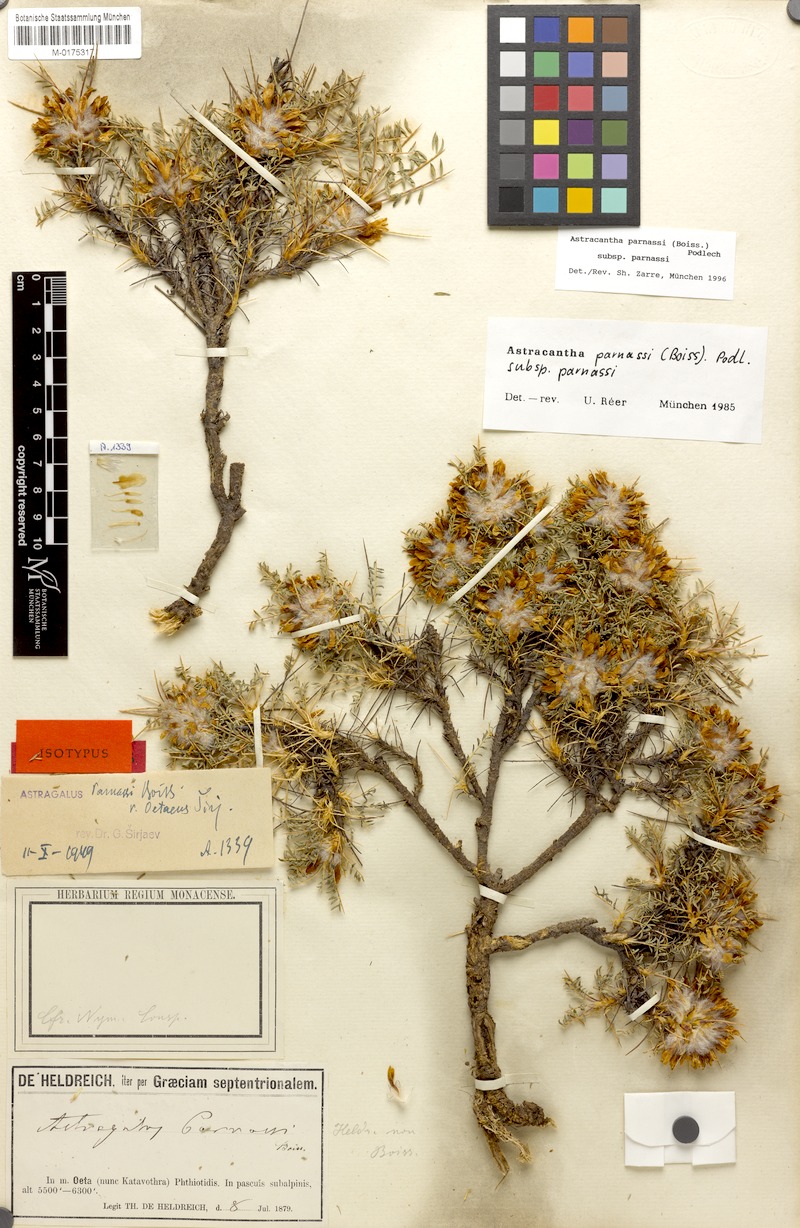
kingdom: Plantae
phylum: Tracheophyta
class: Magnoliopsida
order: Fabales
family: Fabaceae
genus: Astragalus
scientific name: Astragalus parnassi
